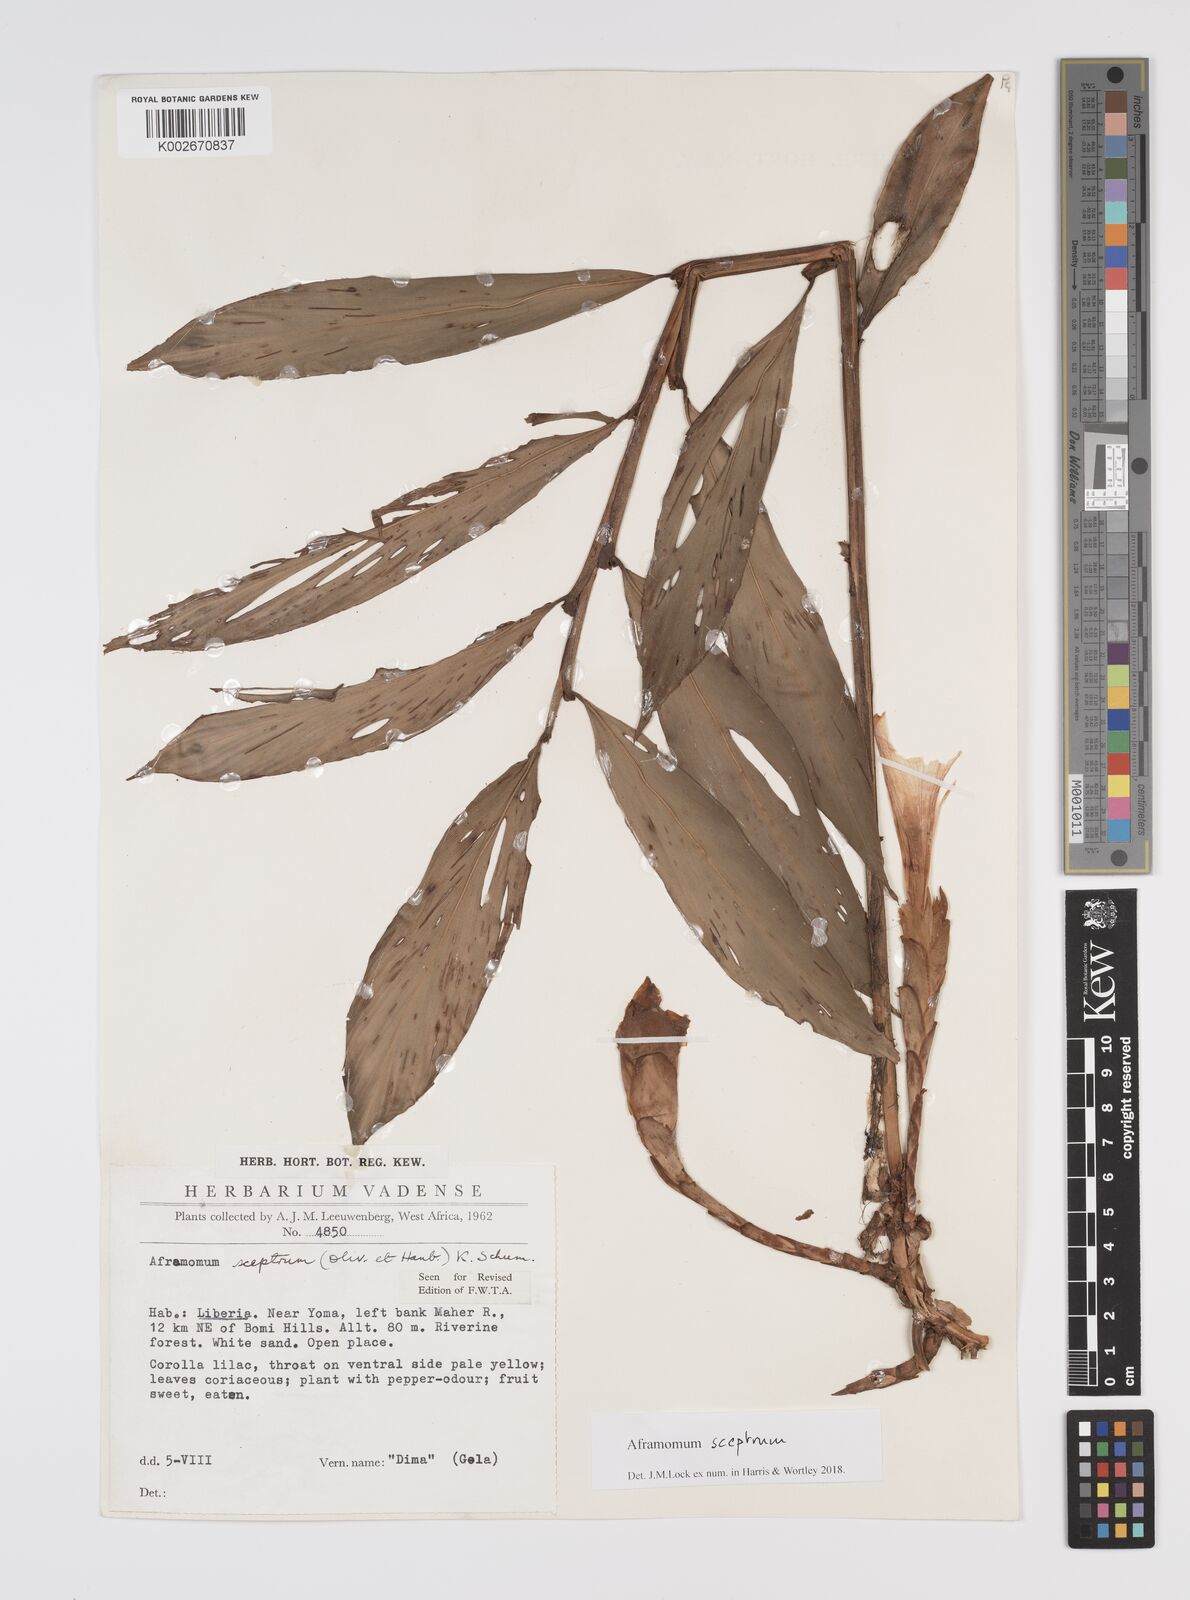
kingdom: Plantae
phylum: Tracheophyta
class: Liliopsida
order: Zingiberales
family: Zingiberaceae
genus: Aframomum
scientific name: Aframomum cereum
